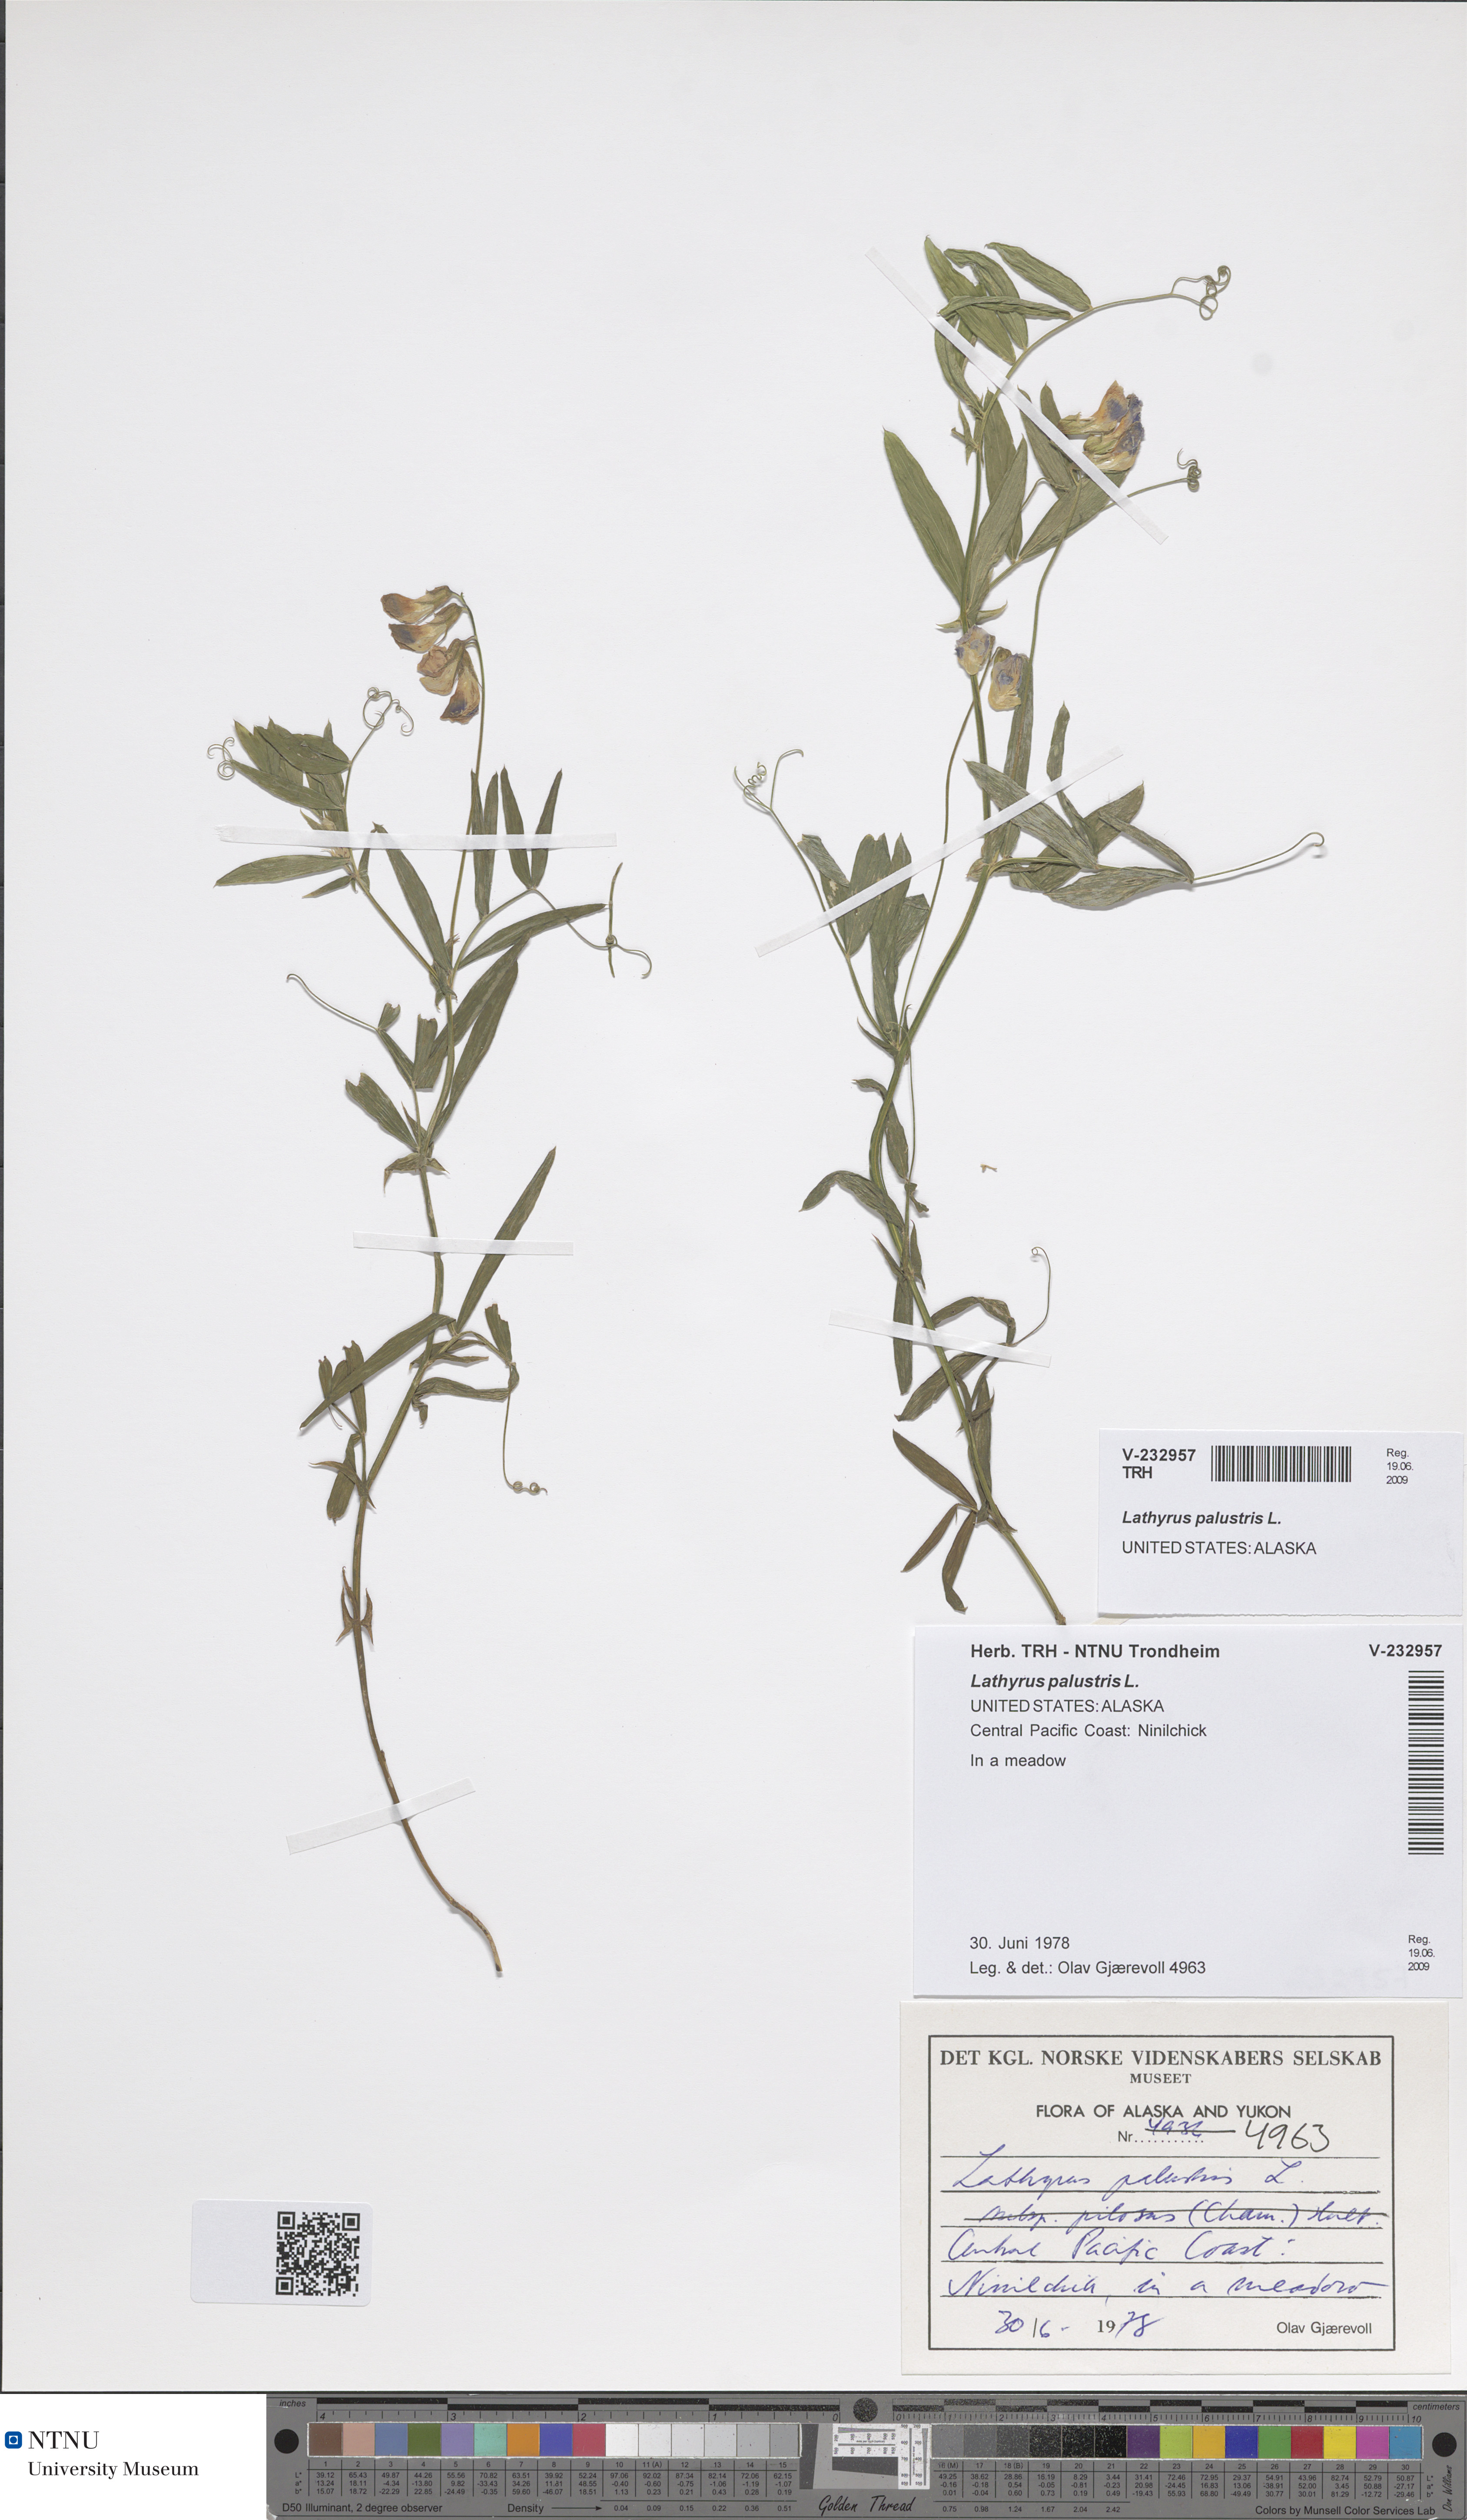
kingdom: Plantae
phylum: Tracheophyta
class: Magnoliopsida
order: Fabales
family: Fabaceae
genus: Lathyrus
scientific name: Lathyrus palustris
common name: Marsh pea
